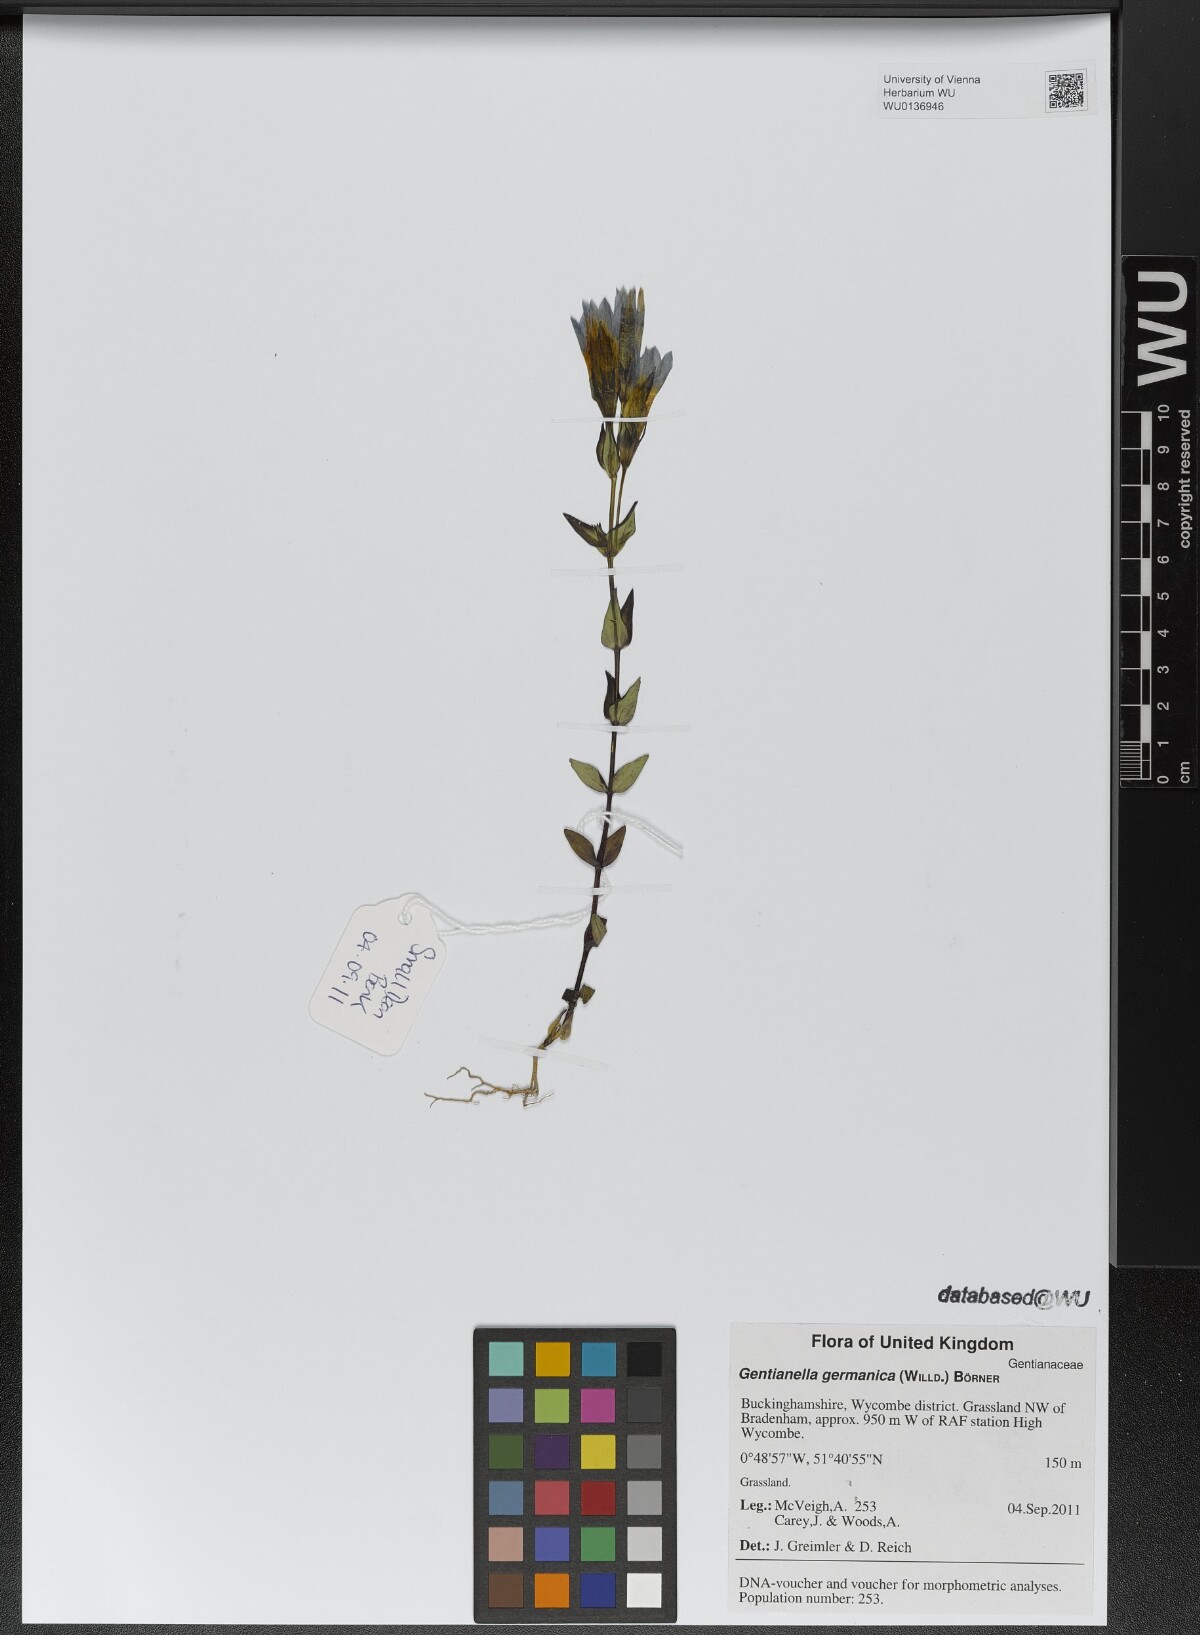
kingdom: Plantae
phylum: Tracheophyta
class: Magnoliopsida
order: Gentianales
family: Gentianaceae
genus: Gentianella
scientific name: Gentianella germanica
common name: Chiltern-gentian
